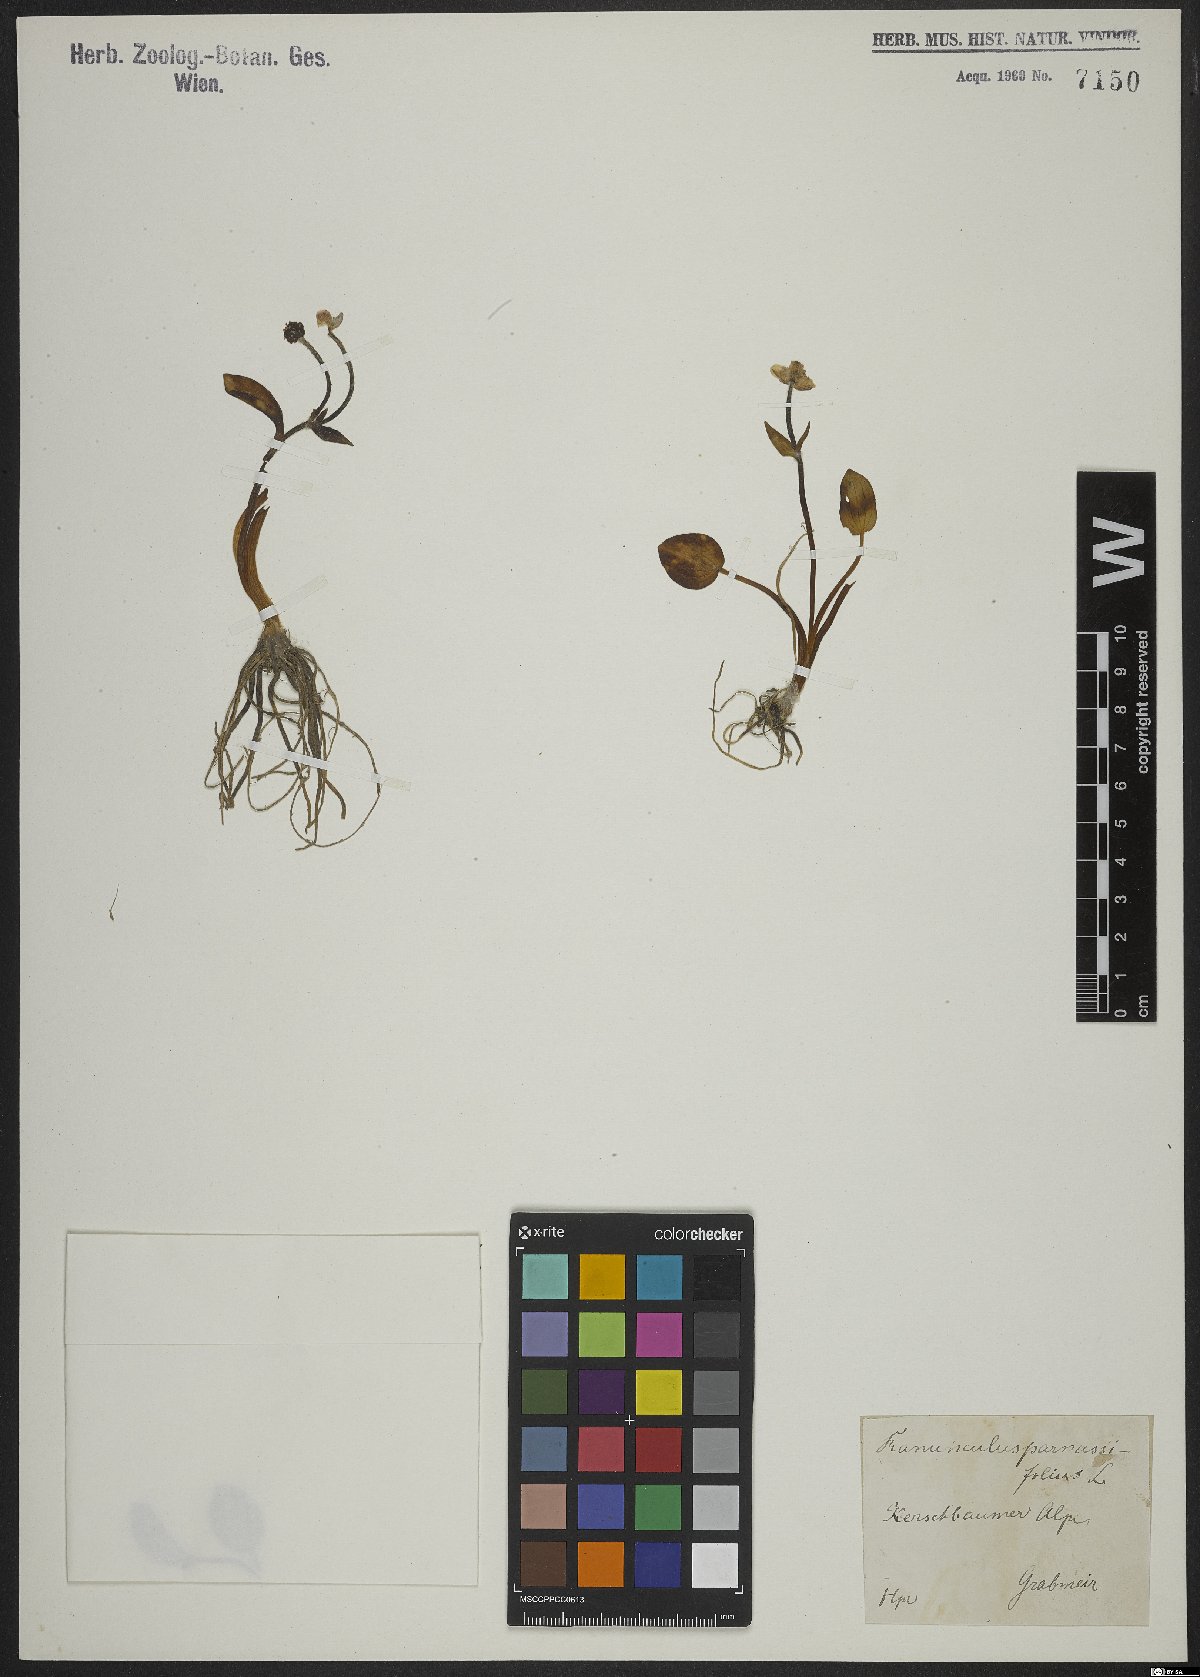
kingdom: Plantae
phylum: Tracheophyta
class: Magnoliopsida
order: Ranunculales
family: Ranunculaceae
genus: Ranunculus
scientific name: Ranunculus parnassiifolius
